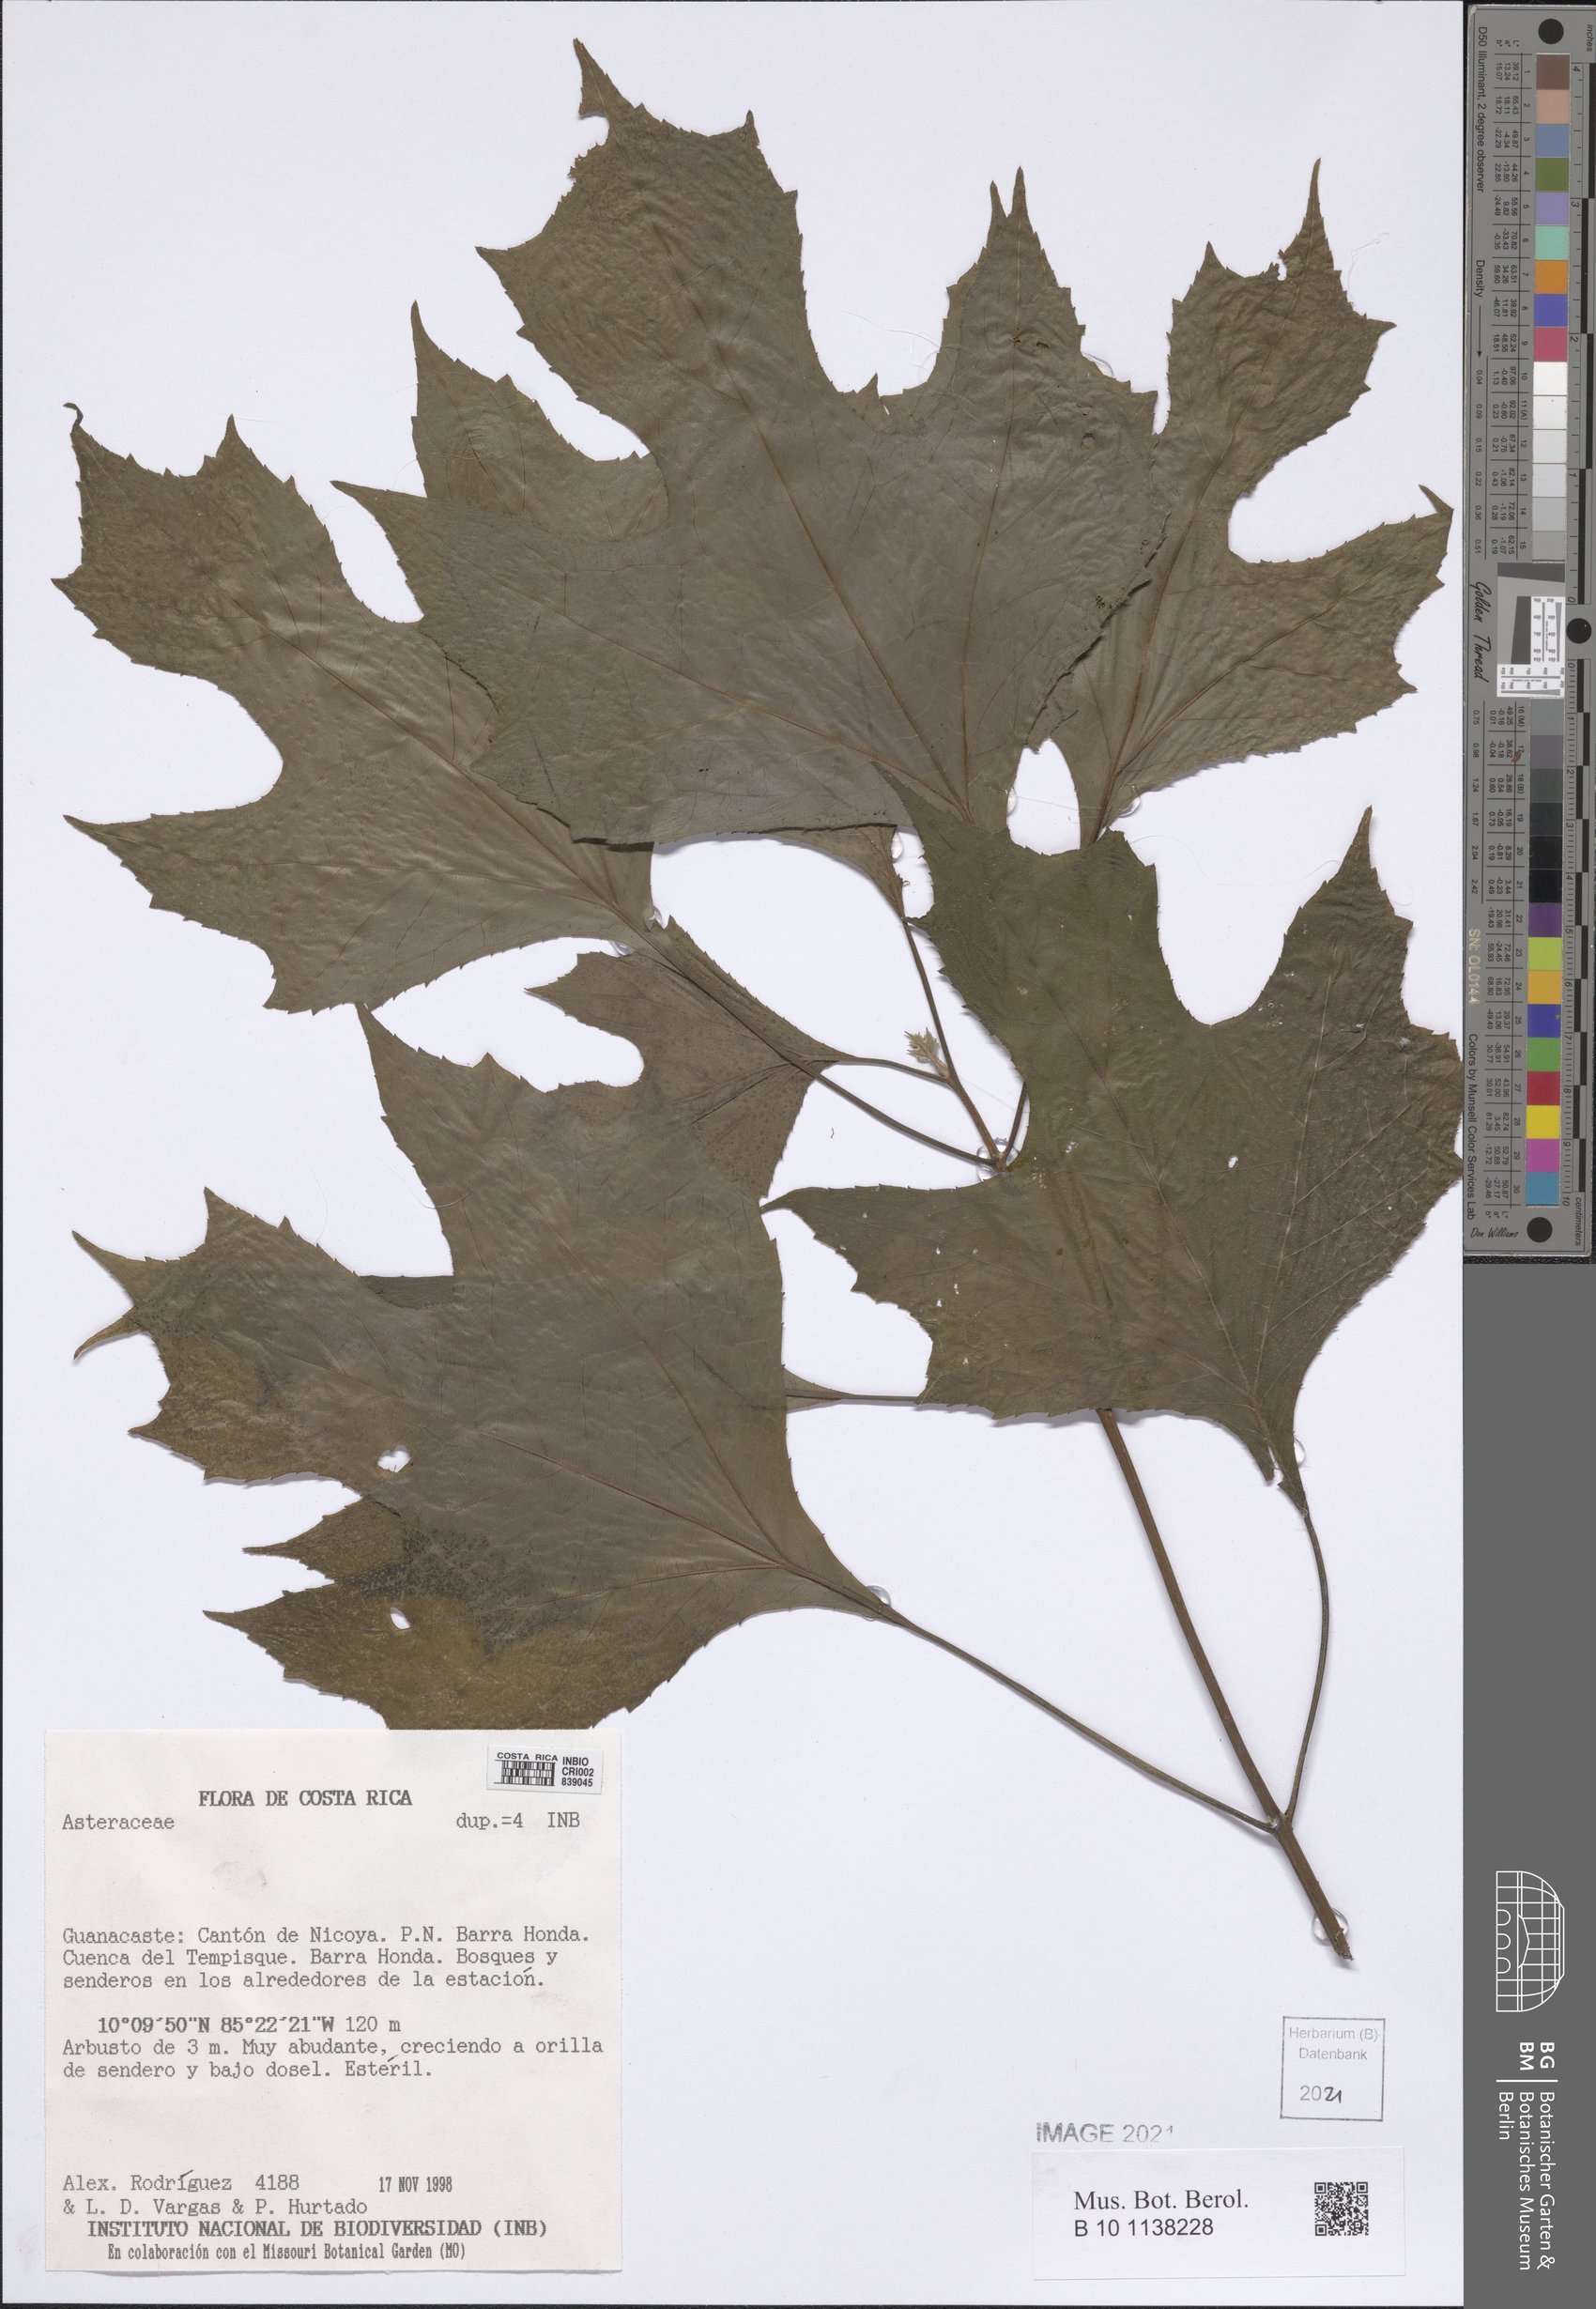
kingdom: Plantae
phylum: Tracheophyta
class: Magnoliopsida
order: Asterales
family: Asteraceae
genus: Montanoa
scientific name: Montanoa tomentosa
